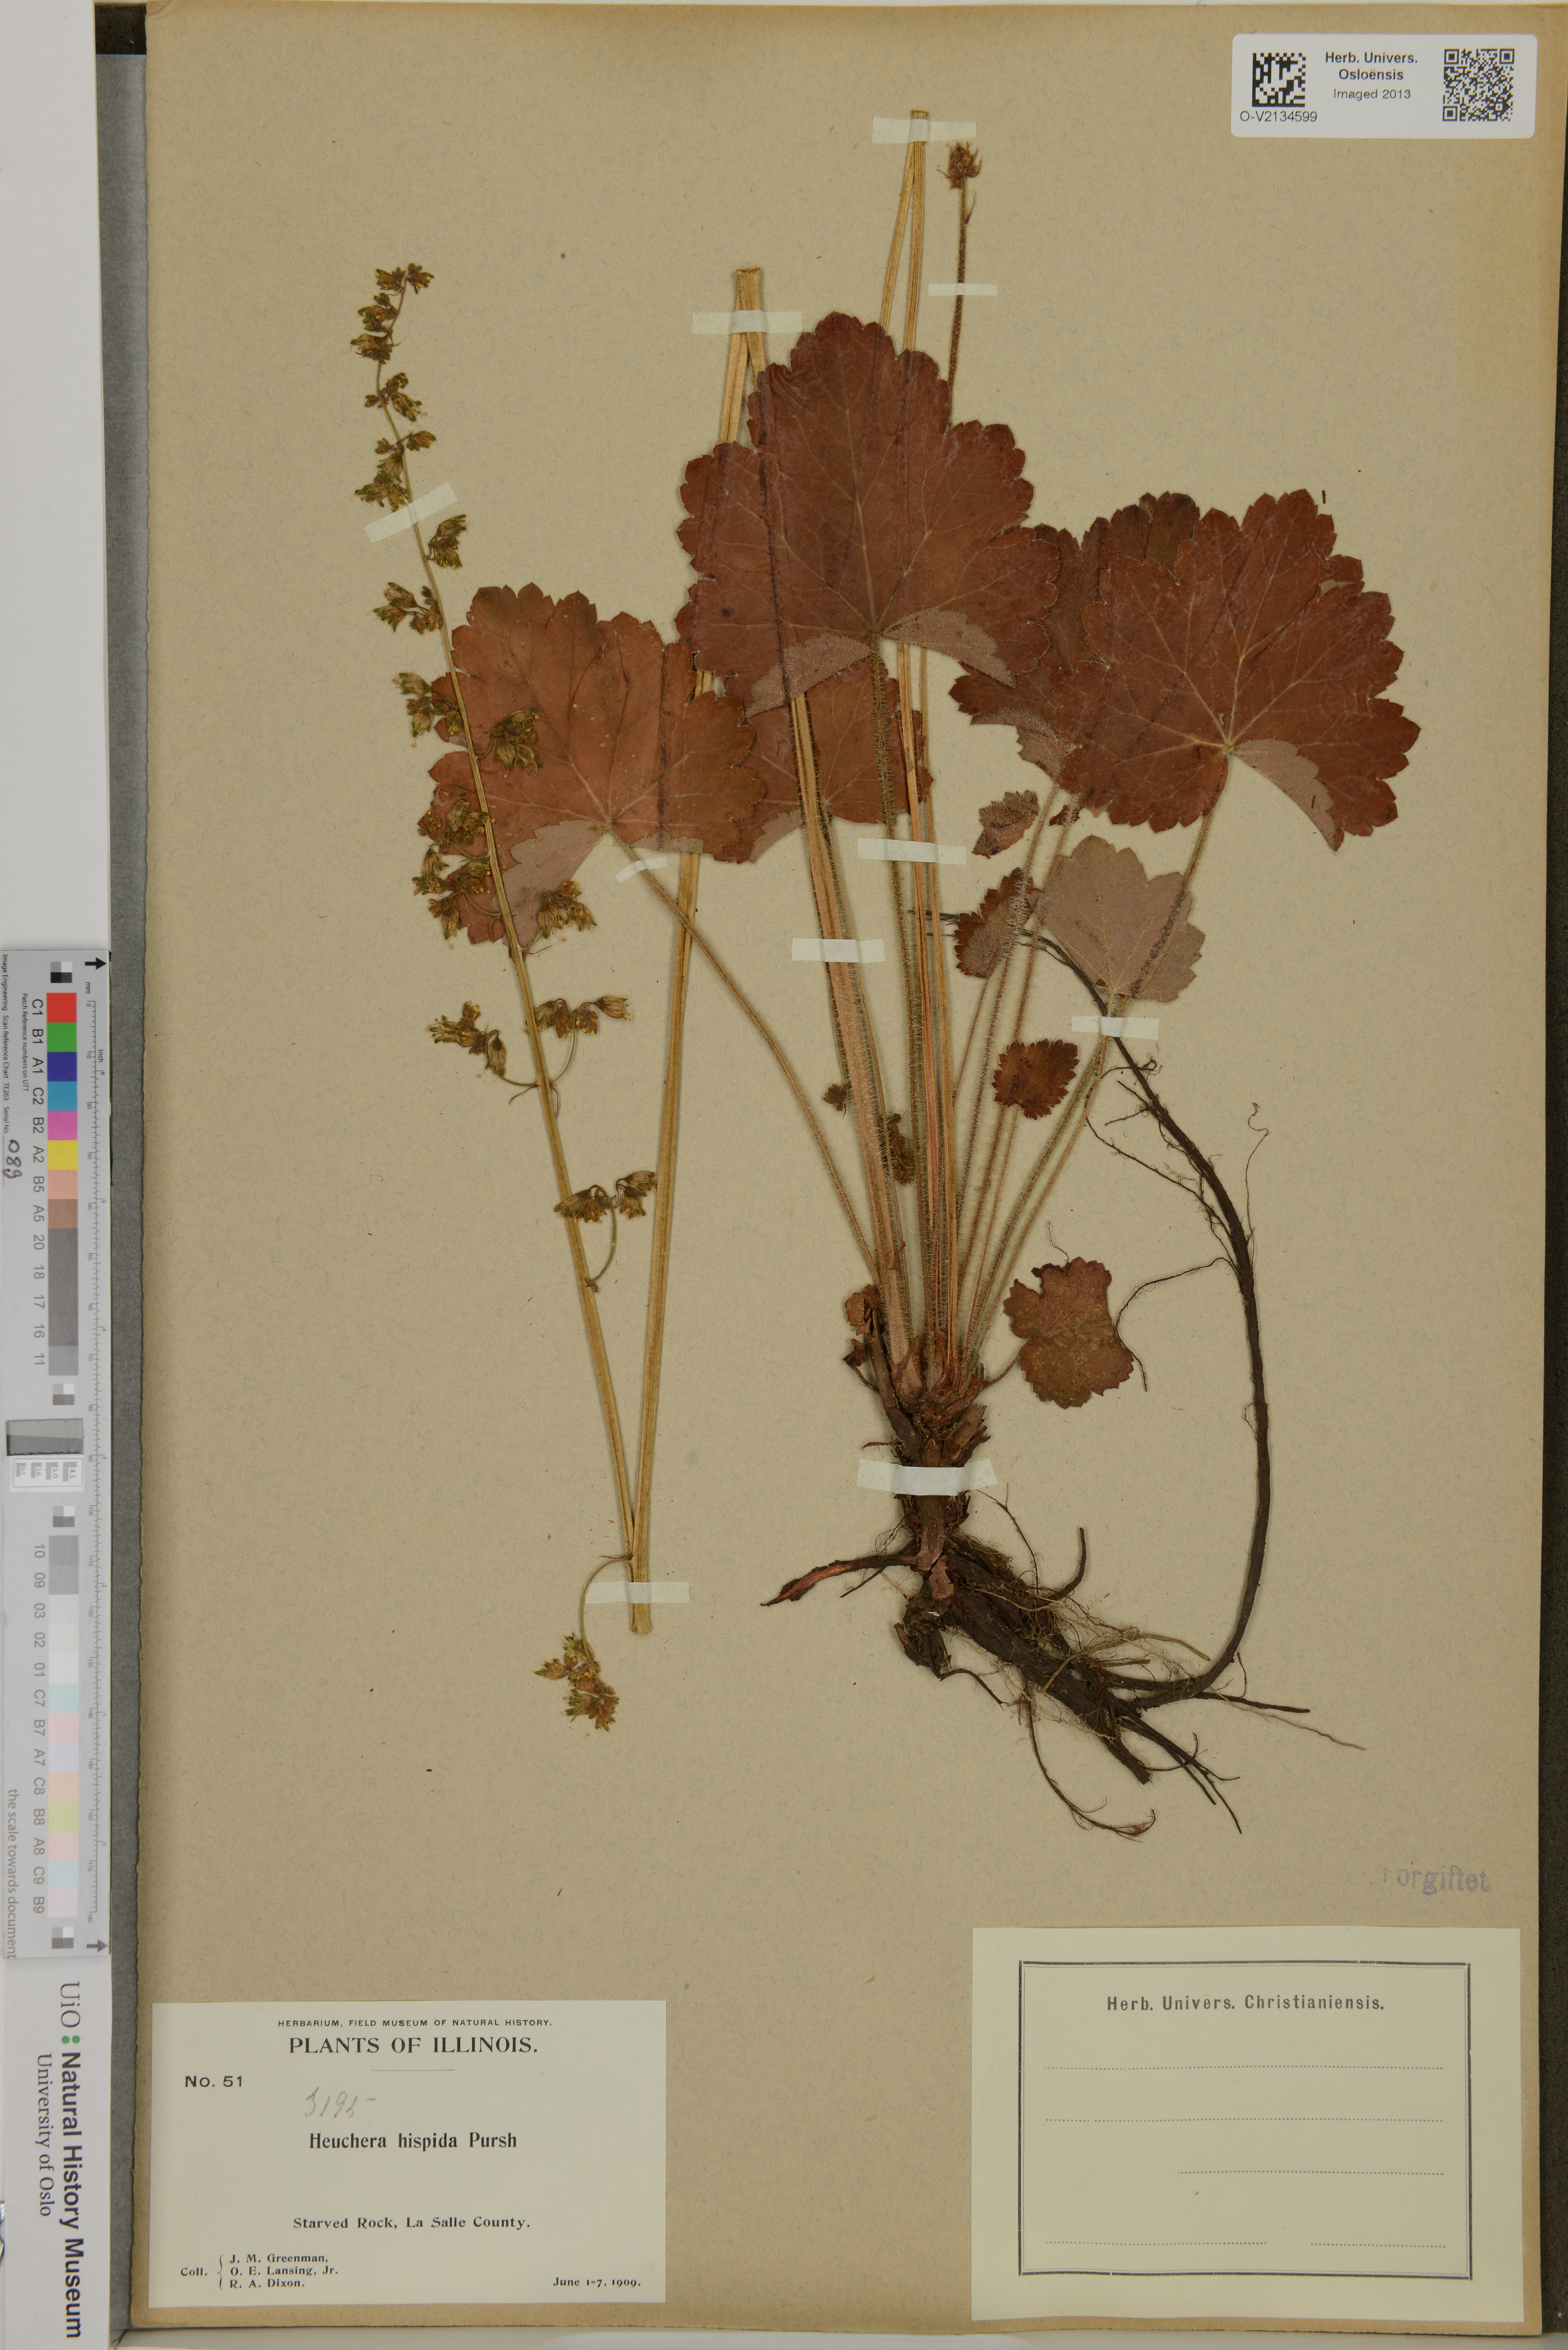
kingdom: Plantae
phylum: Tracheophyta
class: Magnoliopsida
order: Saxifragales
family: Saxifragaceae
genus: Heuchera
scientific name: Heuchera
